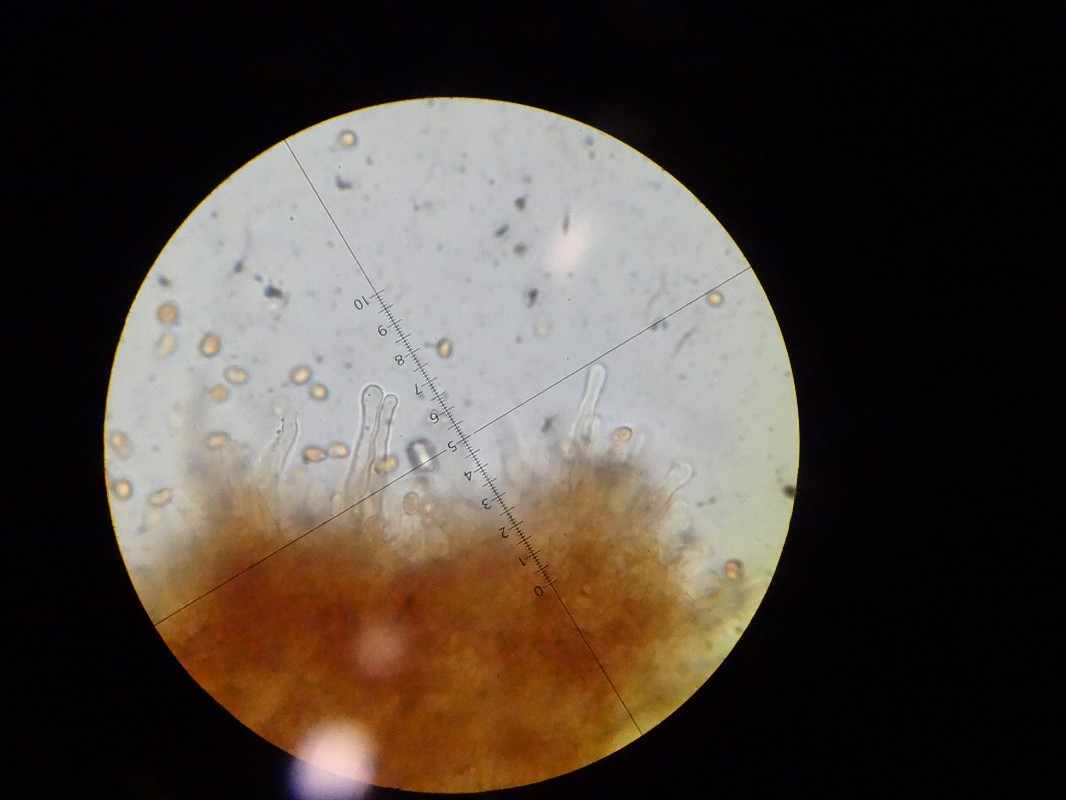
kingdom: Fungi
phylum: Basidiomycota
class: Agaricomycetes
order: Agaricales
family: Tubariaceae
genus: Tubaria
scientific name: Tubaria furfuracea
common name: kliddet fnughat
